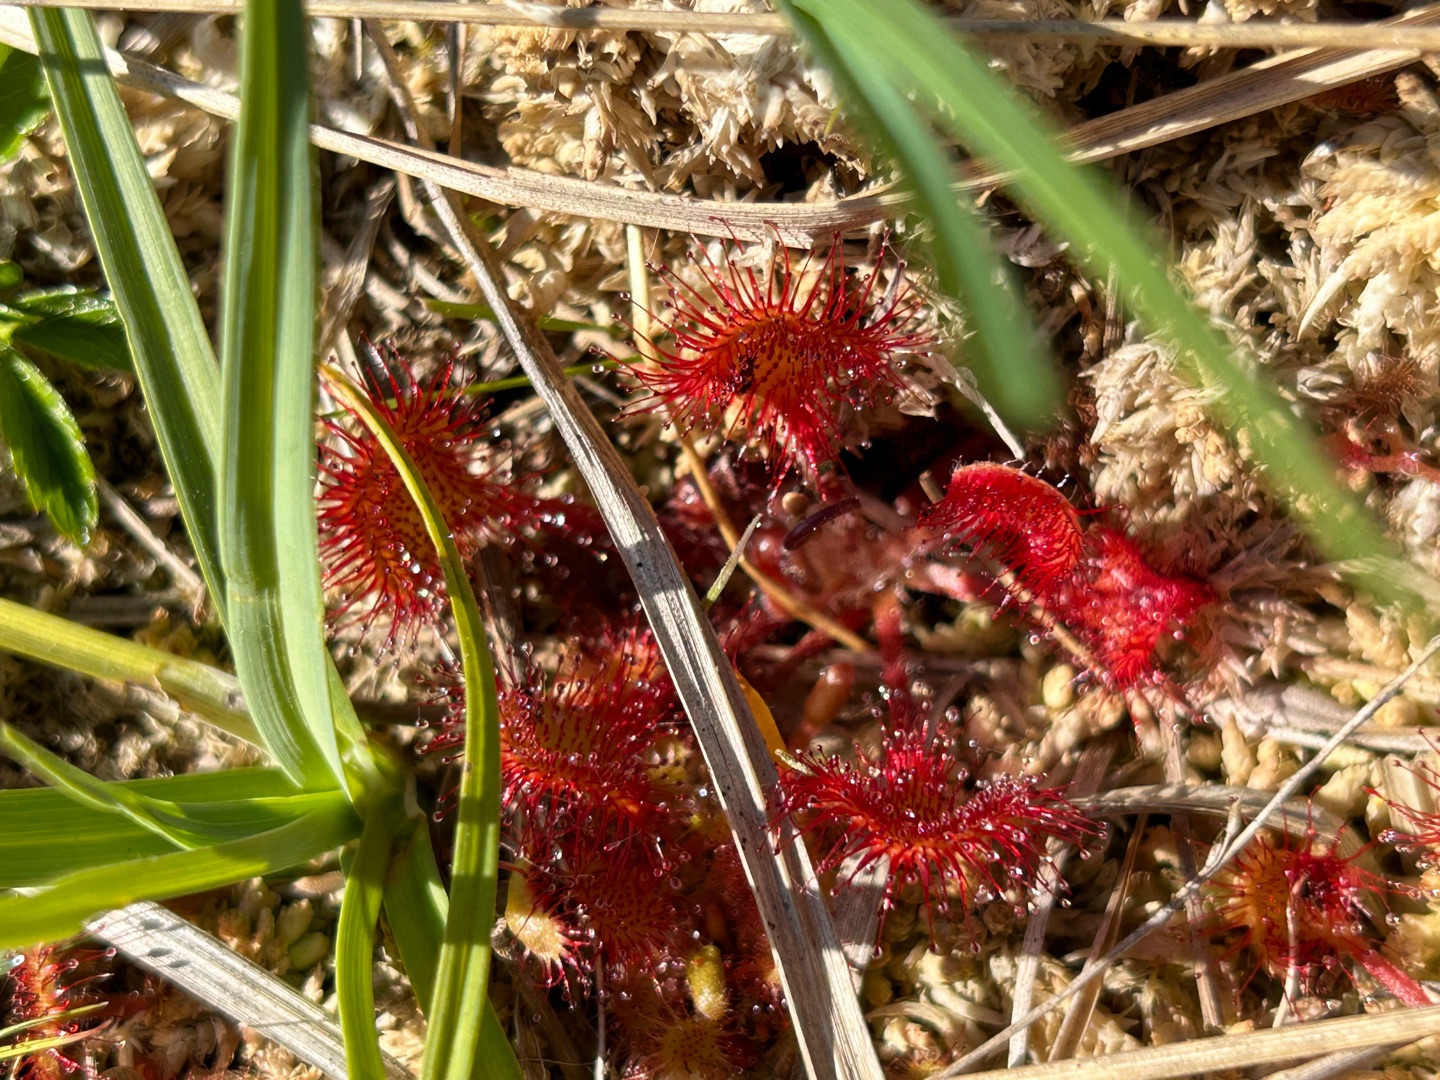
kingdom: Plantae
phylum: Tracheophyta
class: Magnoliopsida
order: Caryophyllales
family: Droseraceae
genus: Drosera
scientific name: Drosera rotundifolia
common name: Rundbladet soldug
